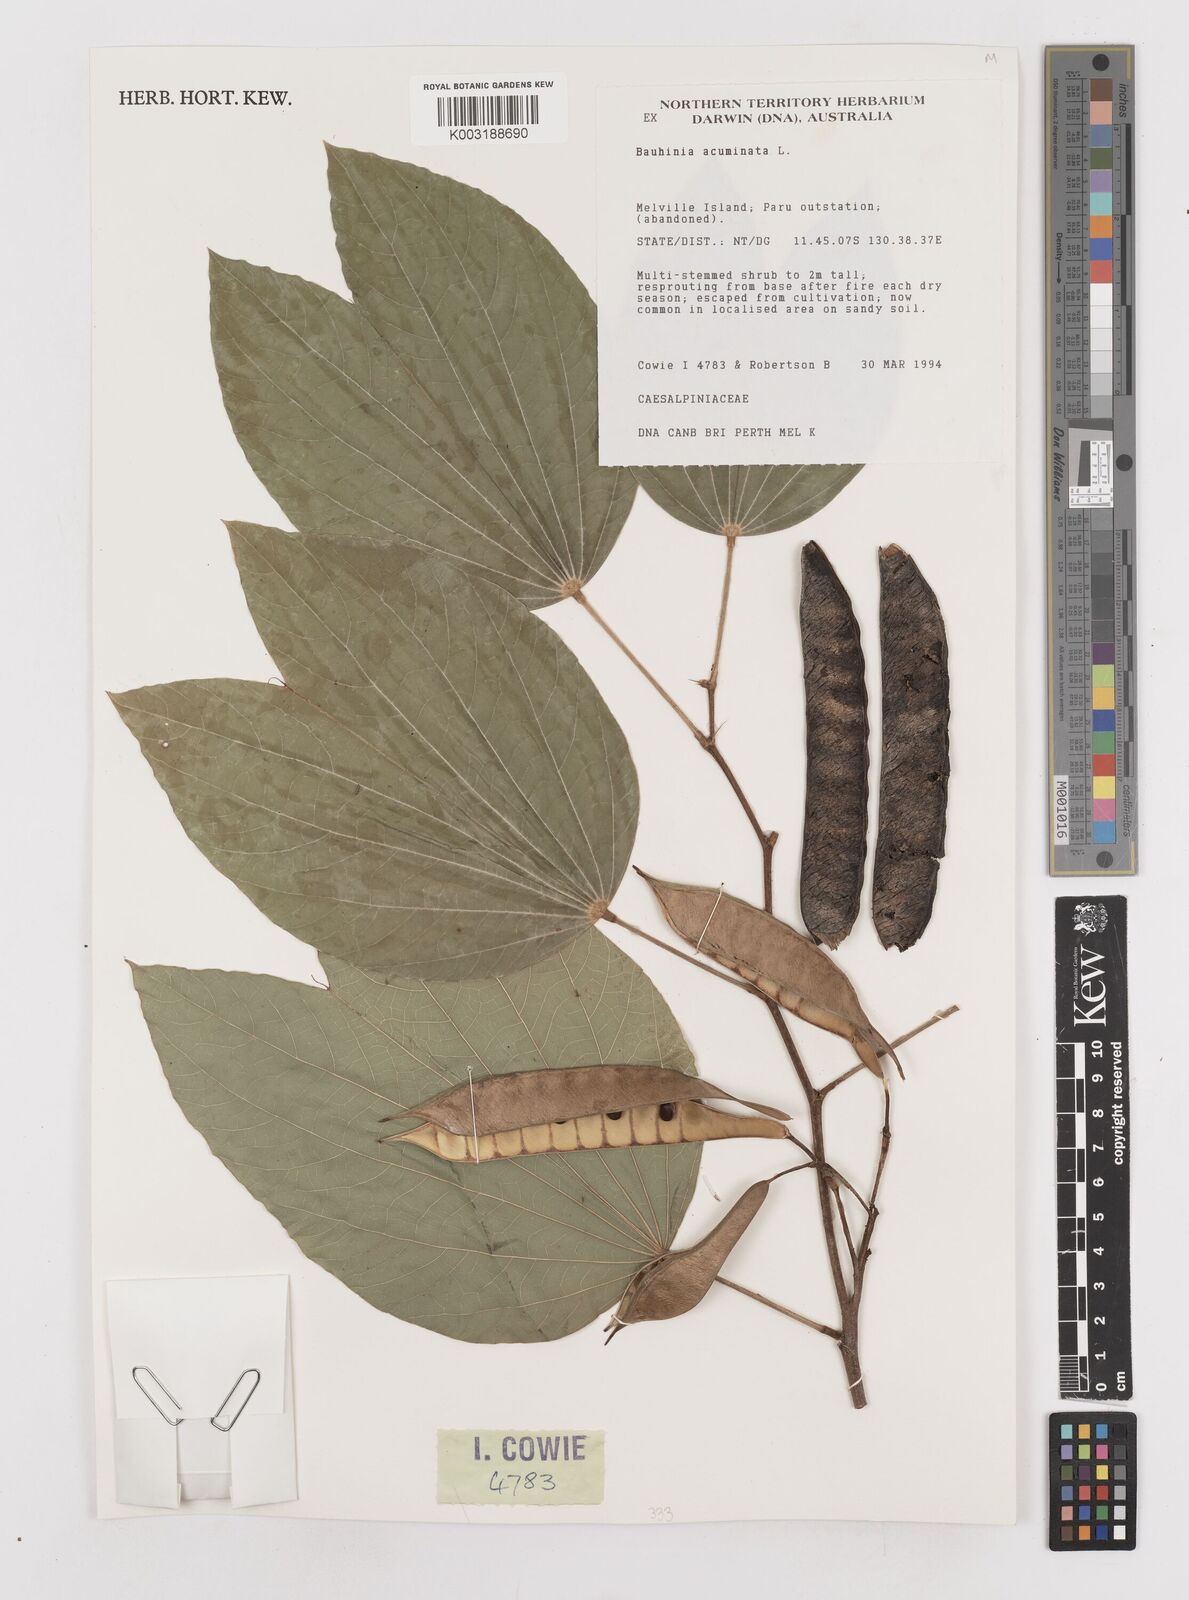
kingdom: Plantae
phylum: Tracheophyta
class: Magnoliopsida
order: Fabales
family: Fabaceae
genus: Schnella
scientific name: Schnella macrostachya
